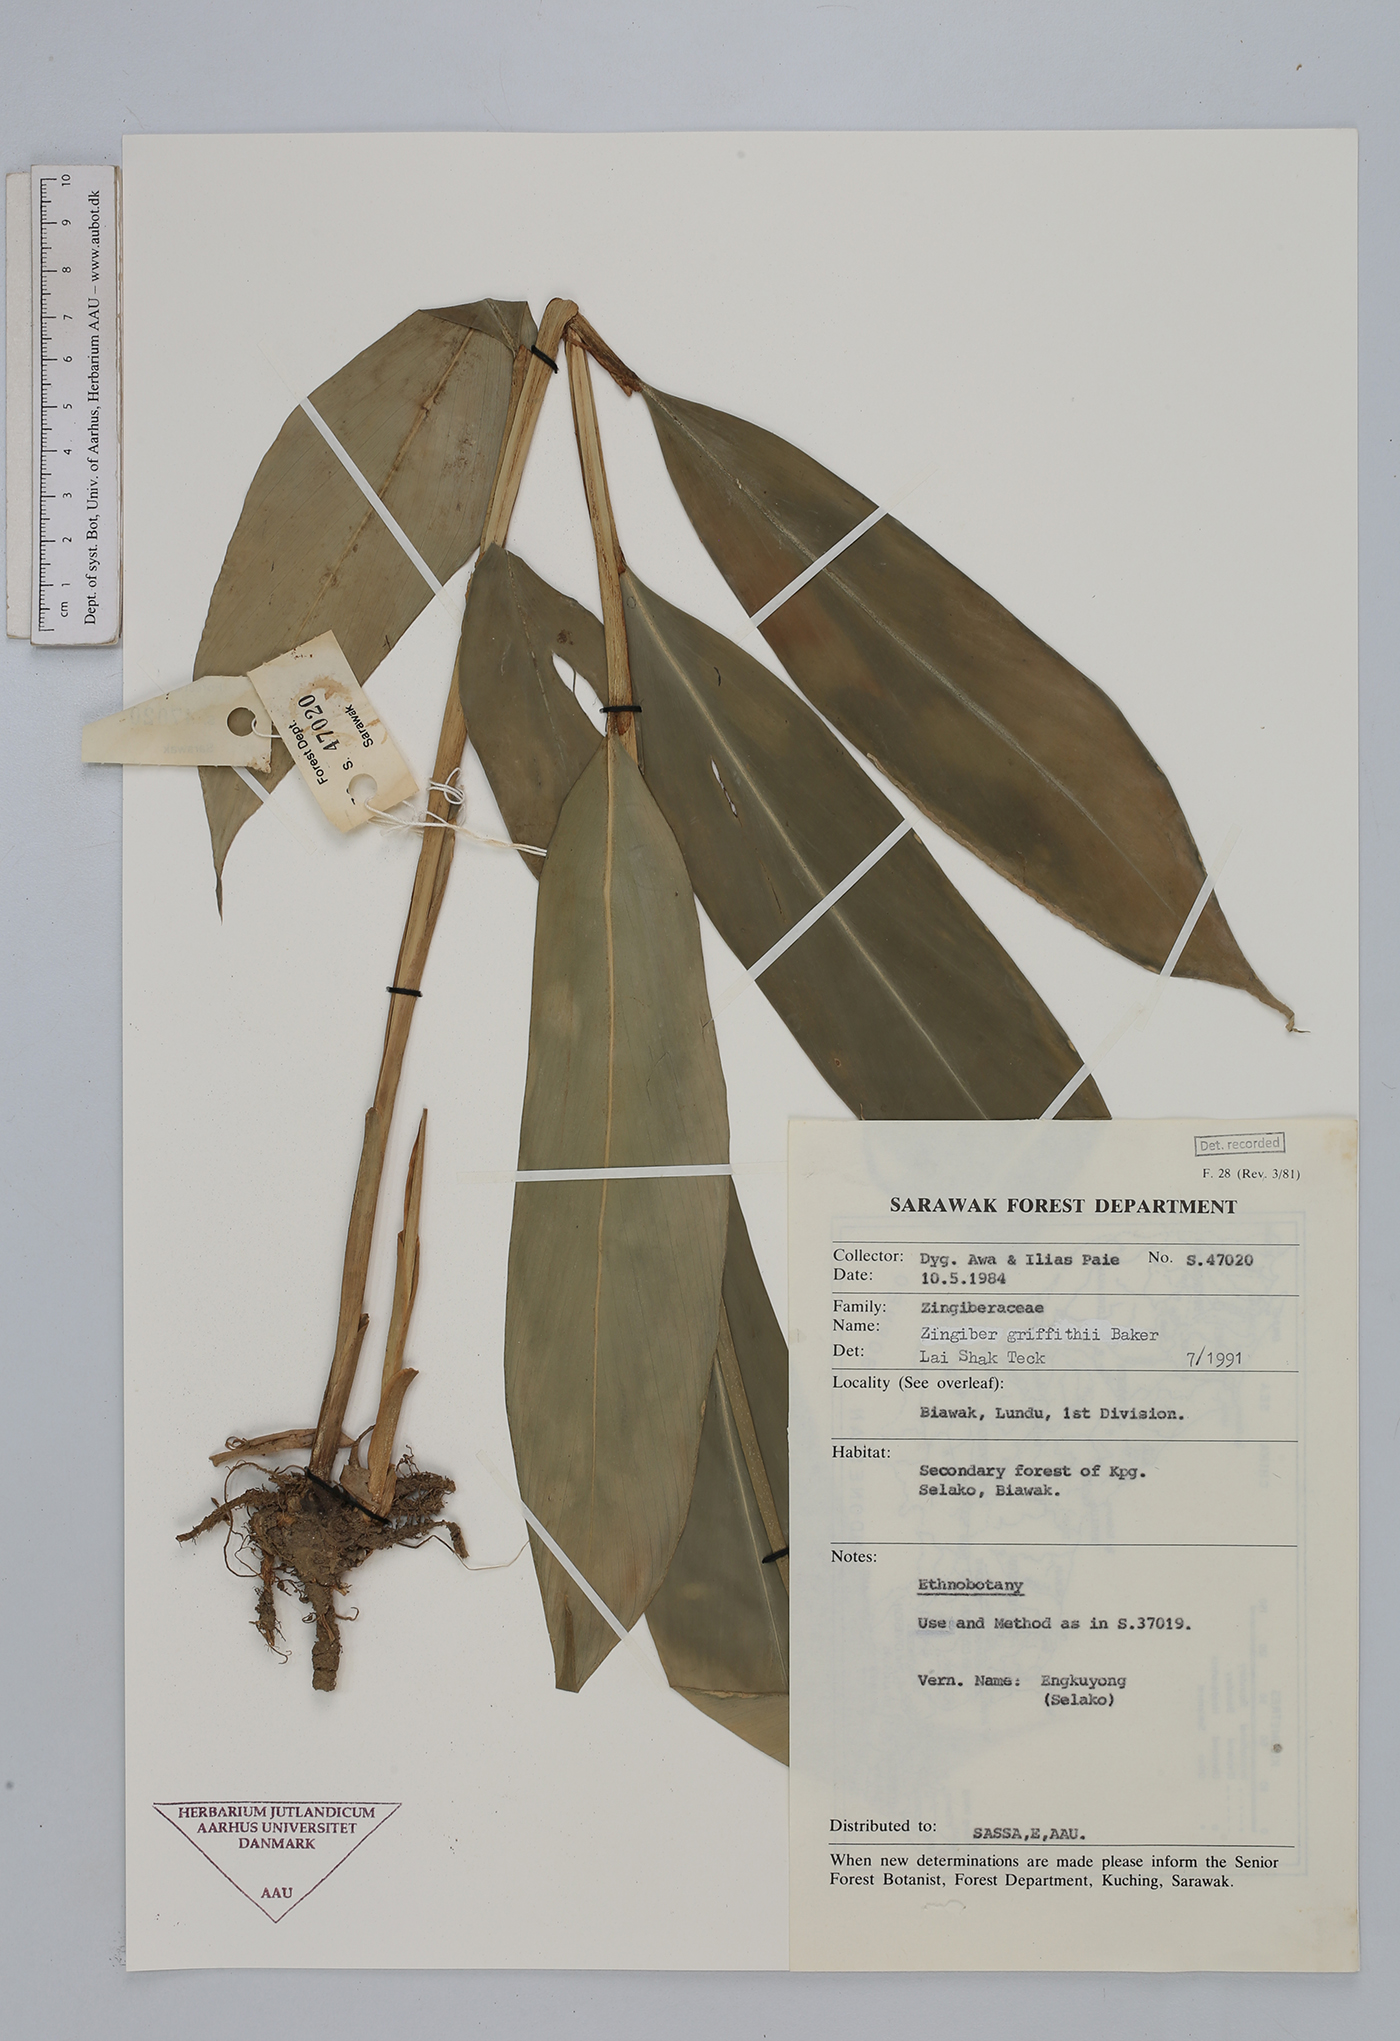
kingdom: Plantae
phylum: Tracheophyta
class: Liliopsida
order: Zingiberales
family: Zingiberaceae
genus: Zingiber
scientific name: Zingiber griffithii
